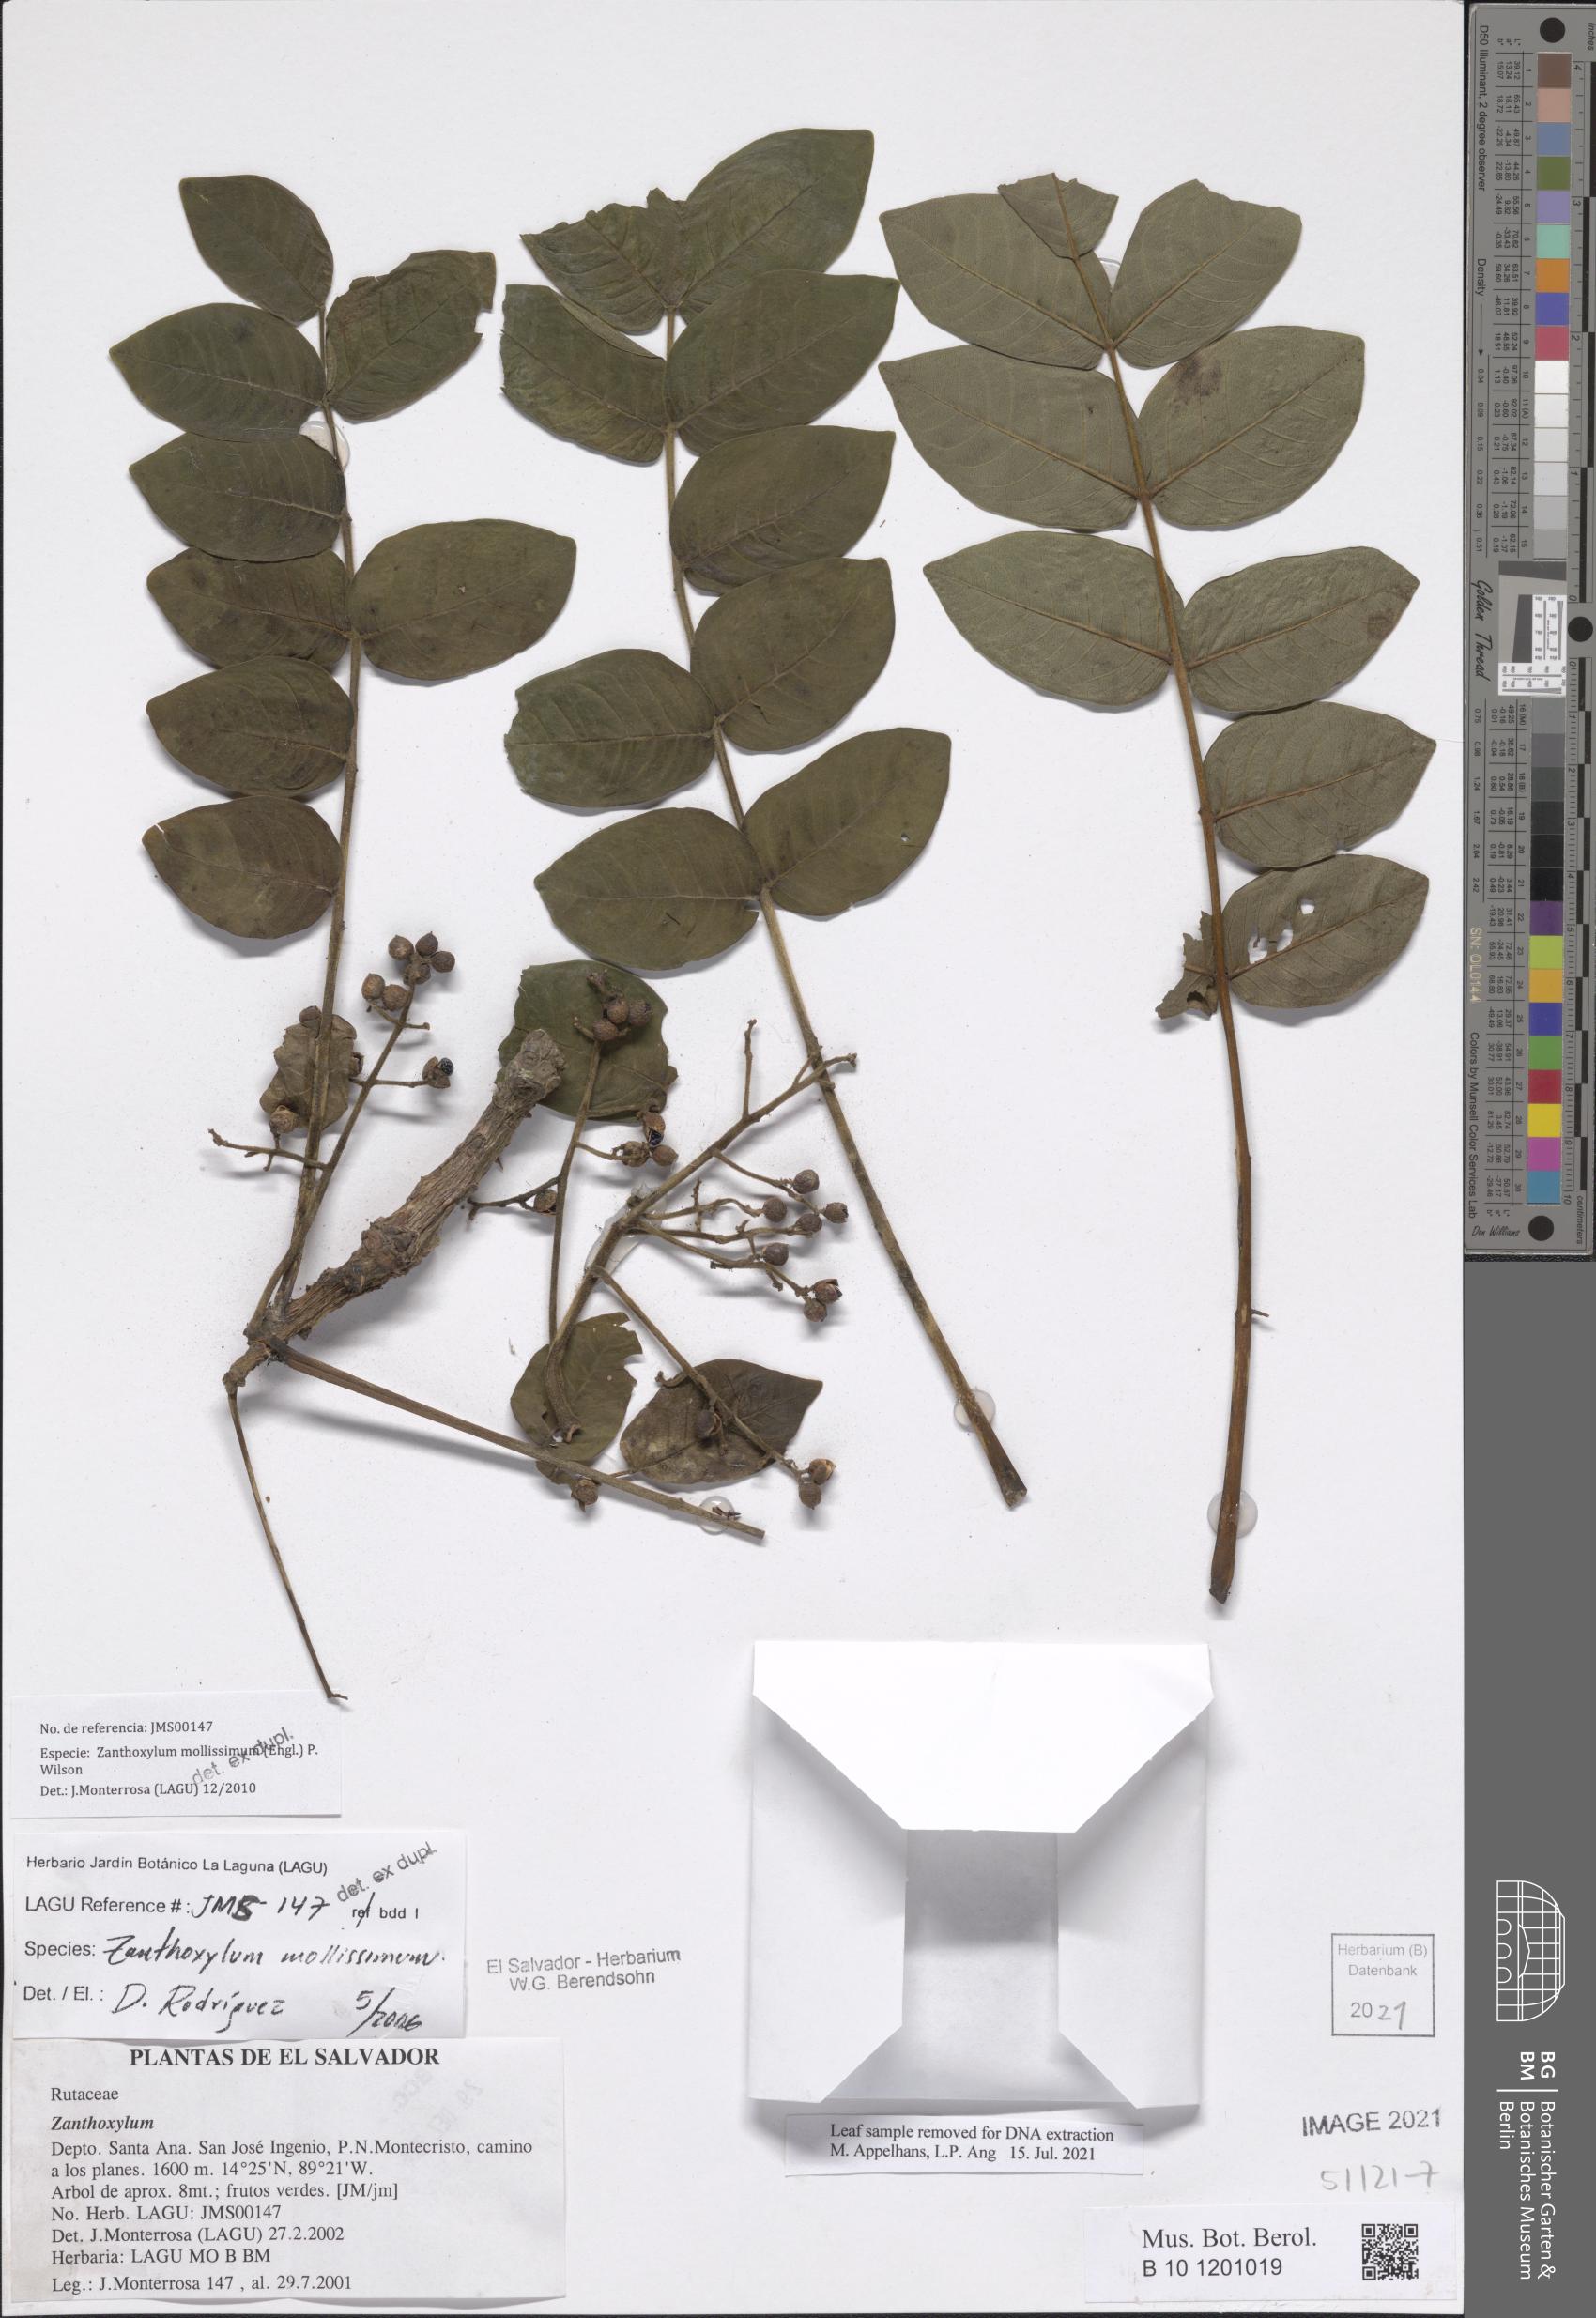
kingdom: Plantae
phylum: Tracheophyta
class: Magnoliopsida
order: Sapindales
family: Rutaceae
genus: Zanthoxylum
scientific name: Zanthoxylum mollissimum
